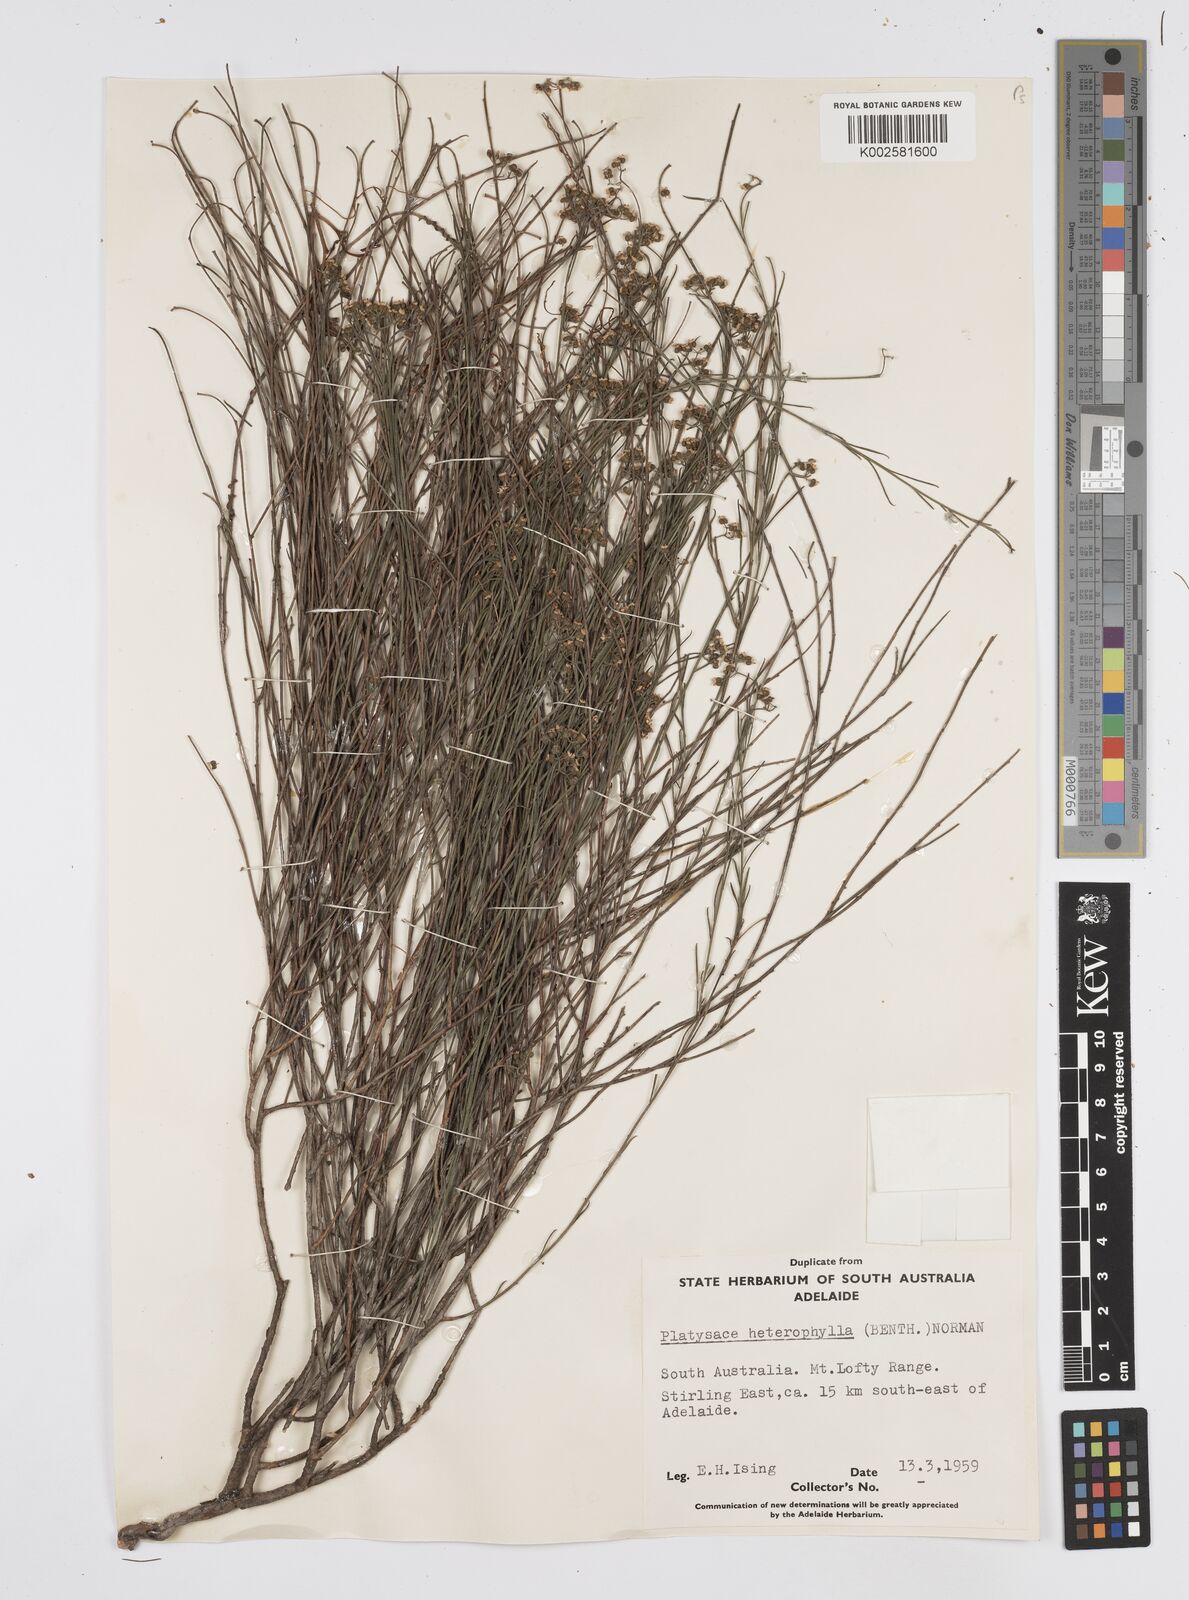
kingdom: Plantae
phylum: Tracheophyta
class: Magnoliopsida
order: Apiales
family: Apiaceae
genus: Platysace
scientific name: Platysace heterophylla
